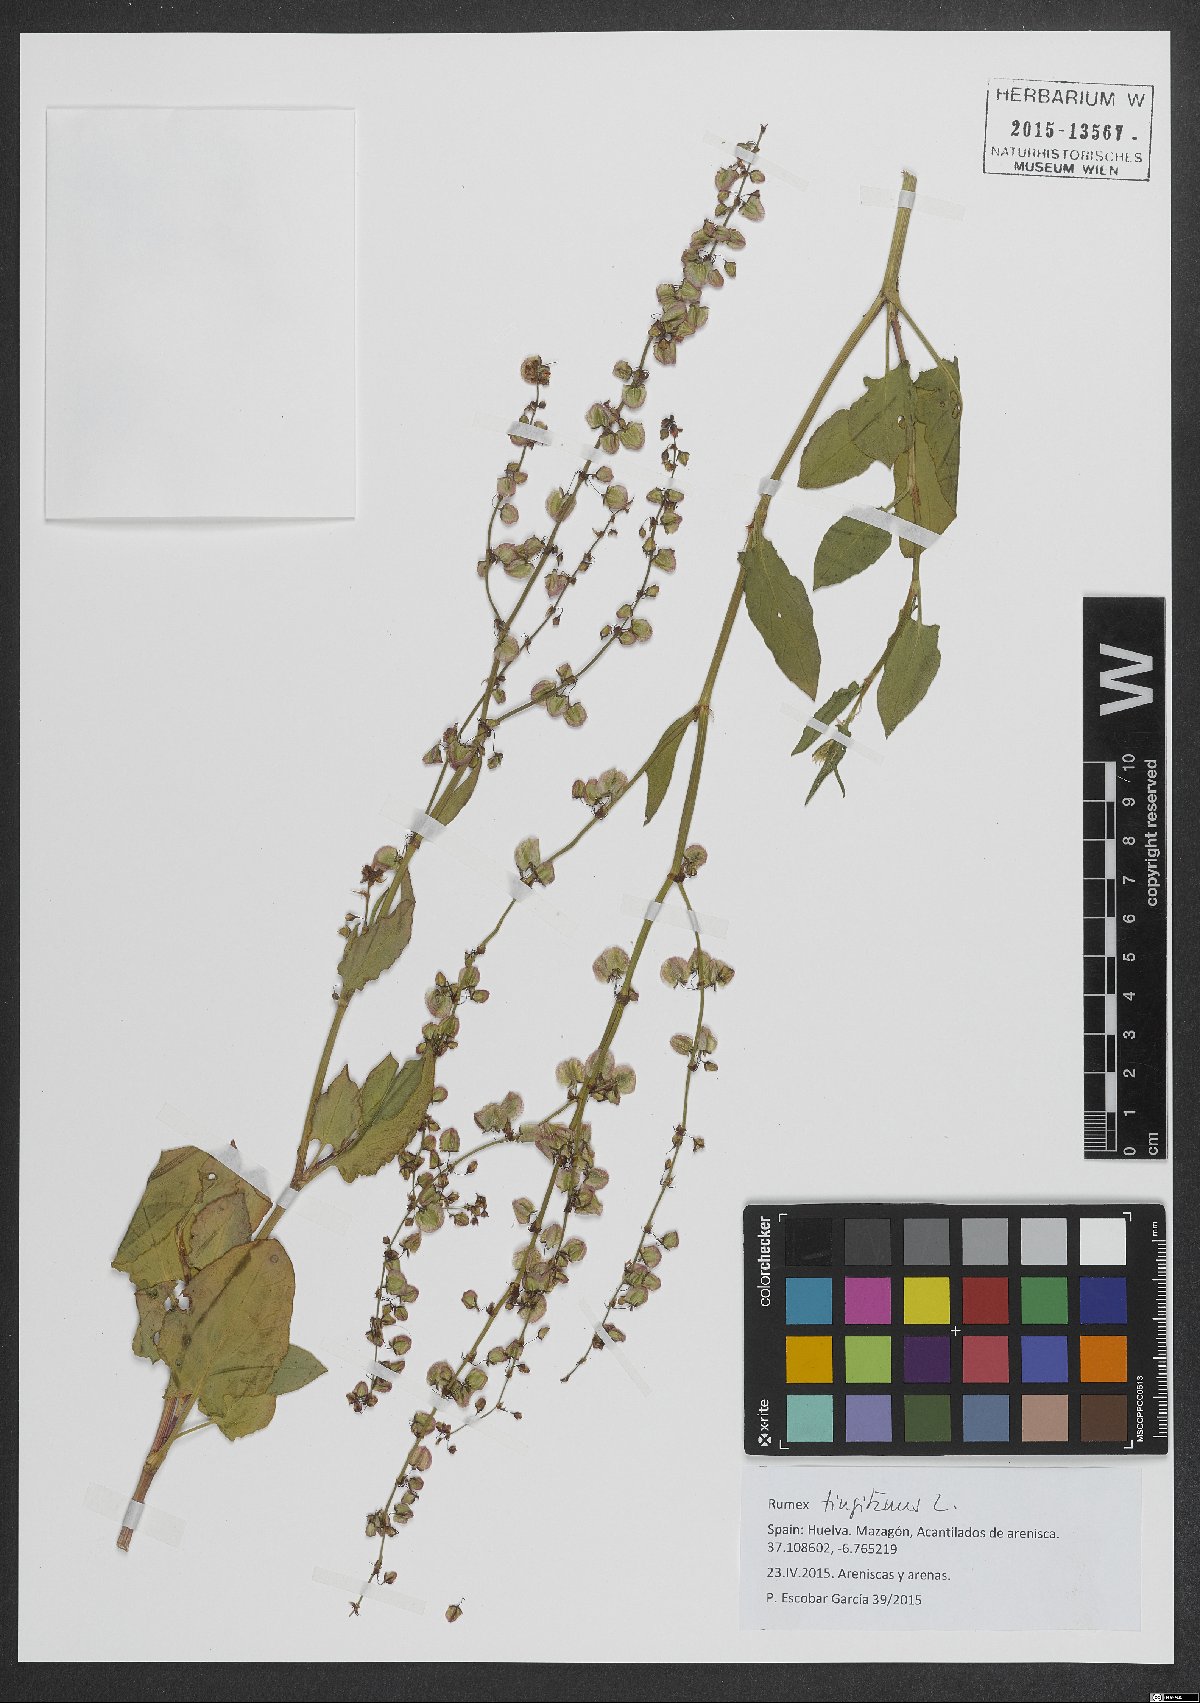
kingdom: Plantae
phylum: Tracheophyta
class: Magnoliopsida
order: Caryophyllales
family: Polygonaceae
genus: Rumex
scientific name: Rumex roseus
